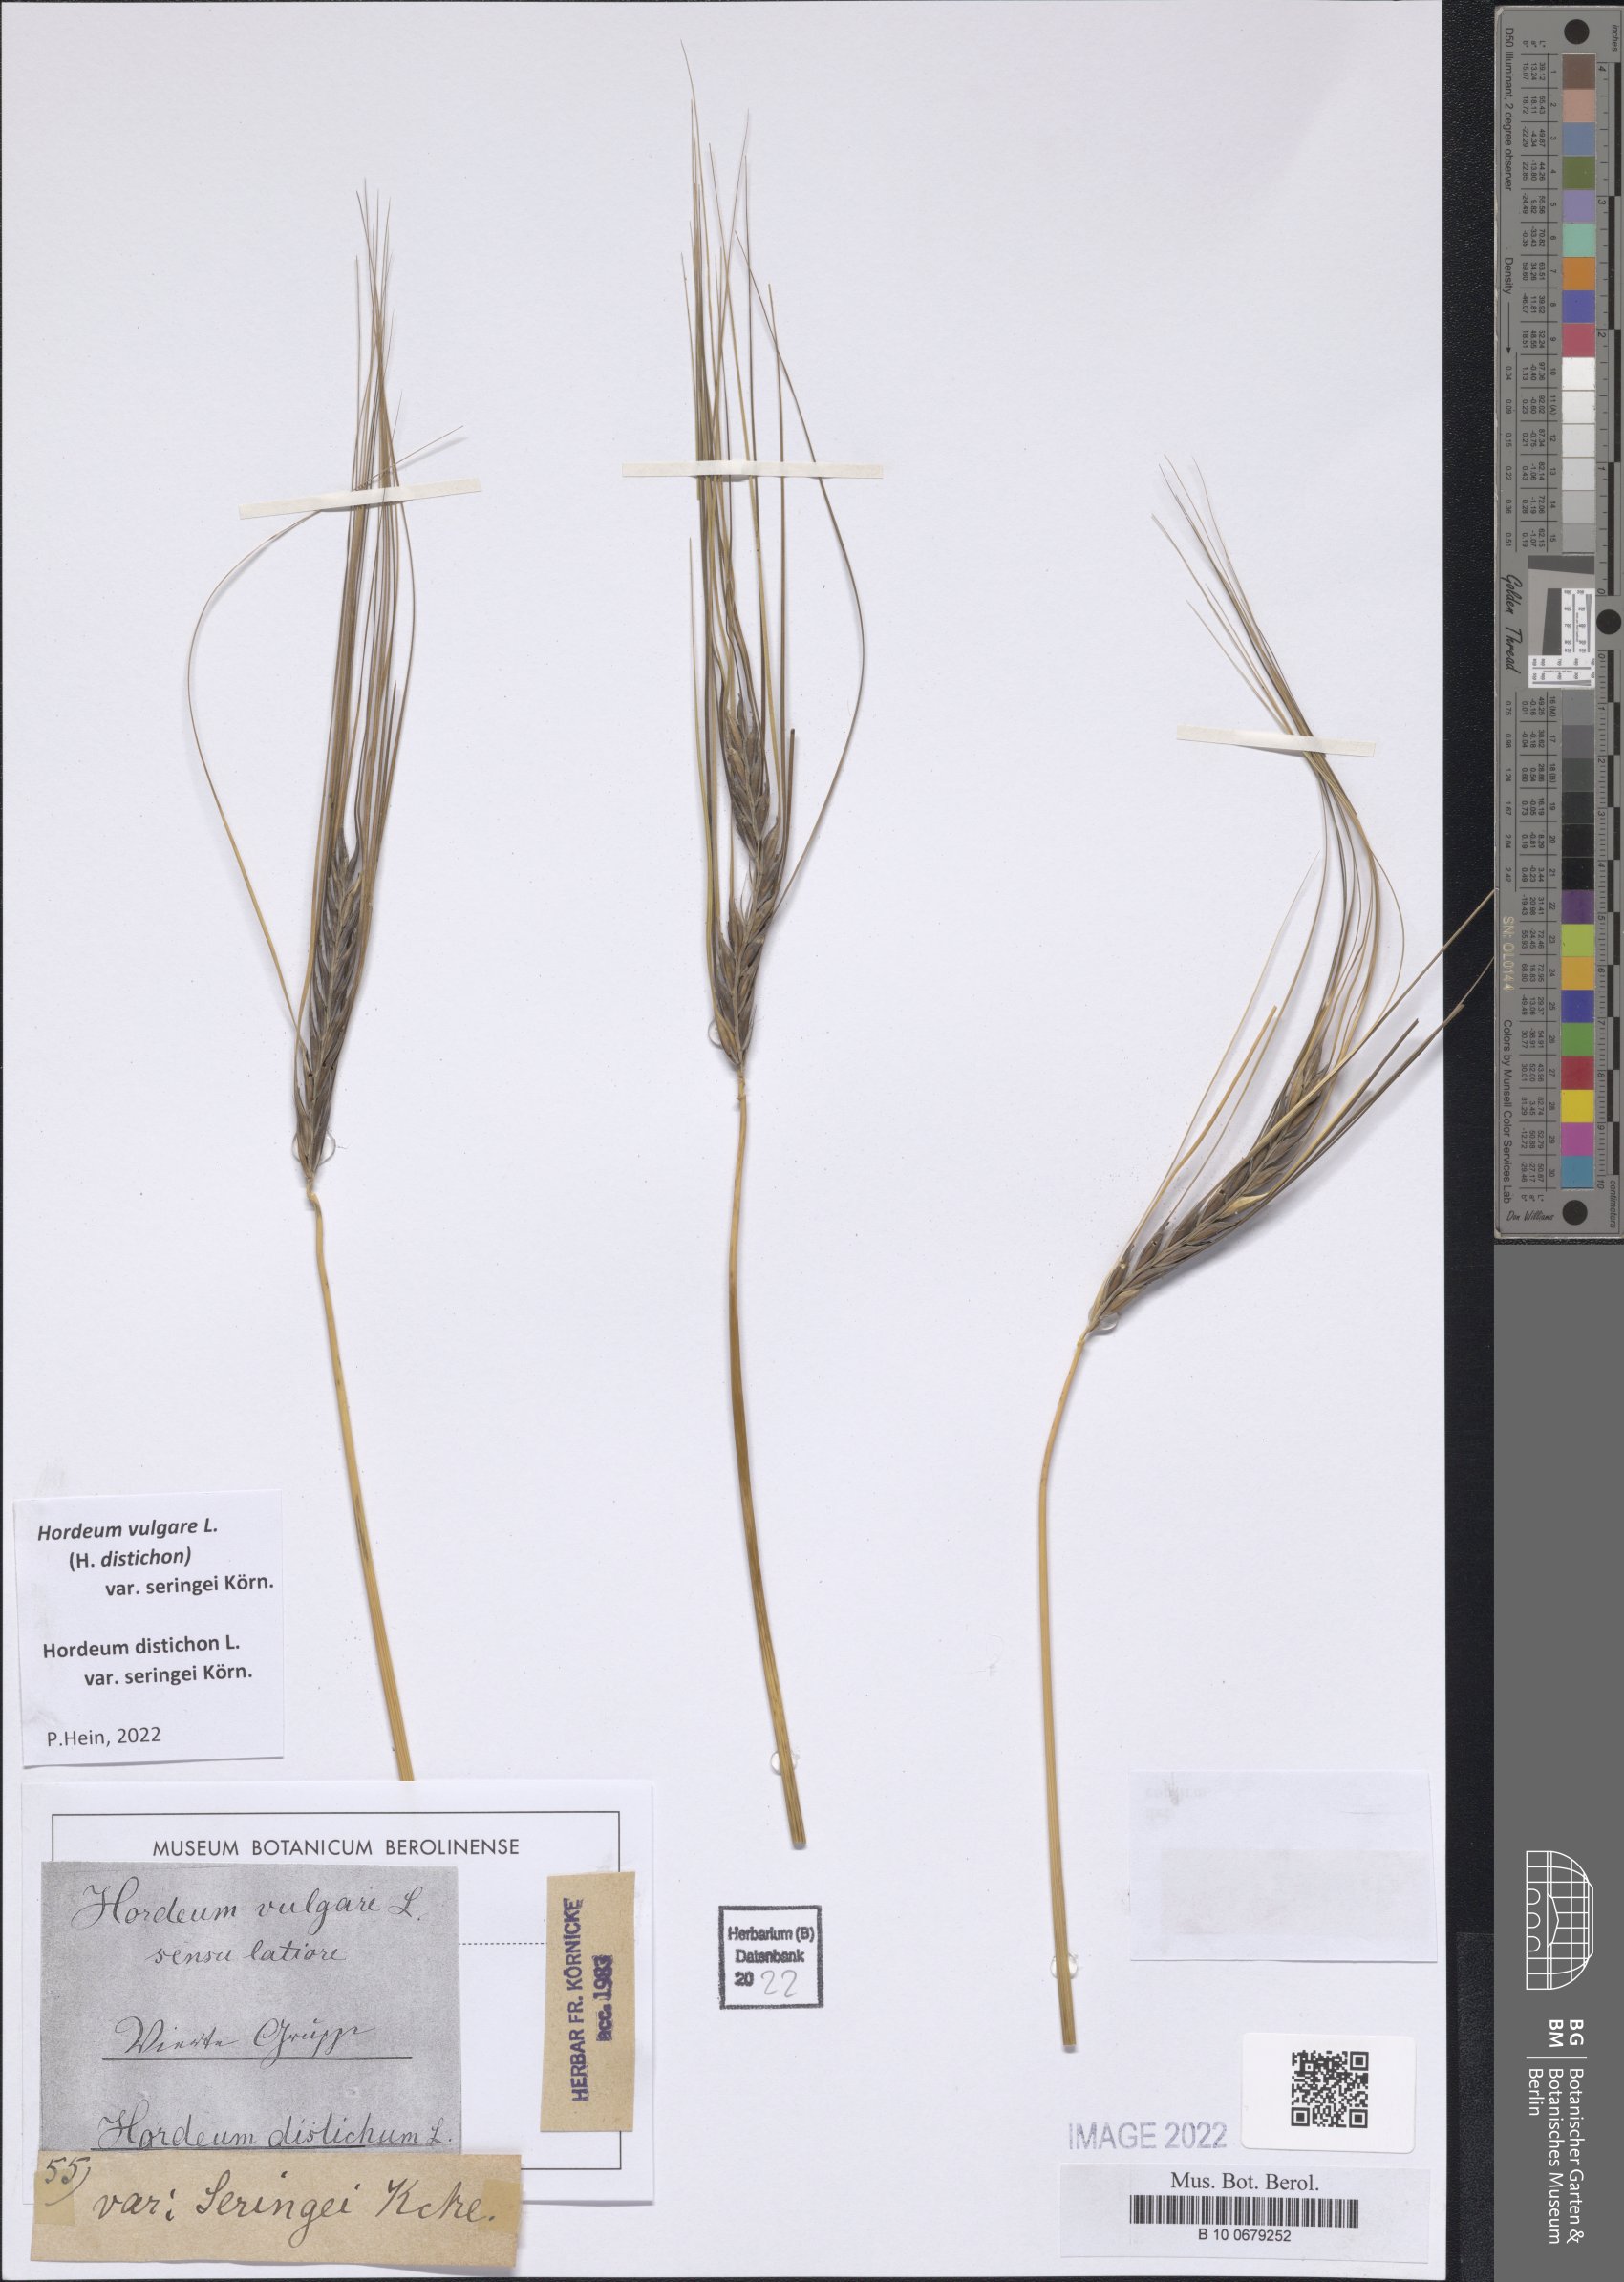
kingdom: Plantae
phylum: Tracheophyta
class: Liliopsida
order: Poales
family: Poaceae
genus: Hordeum
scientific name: Hordeum vulgare
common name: Common barley
